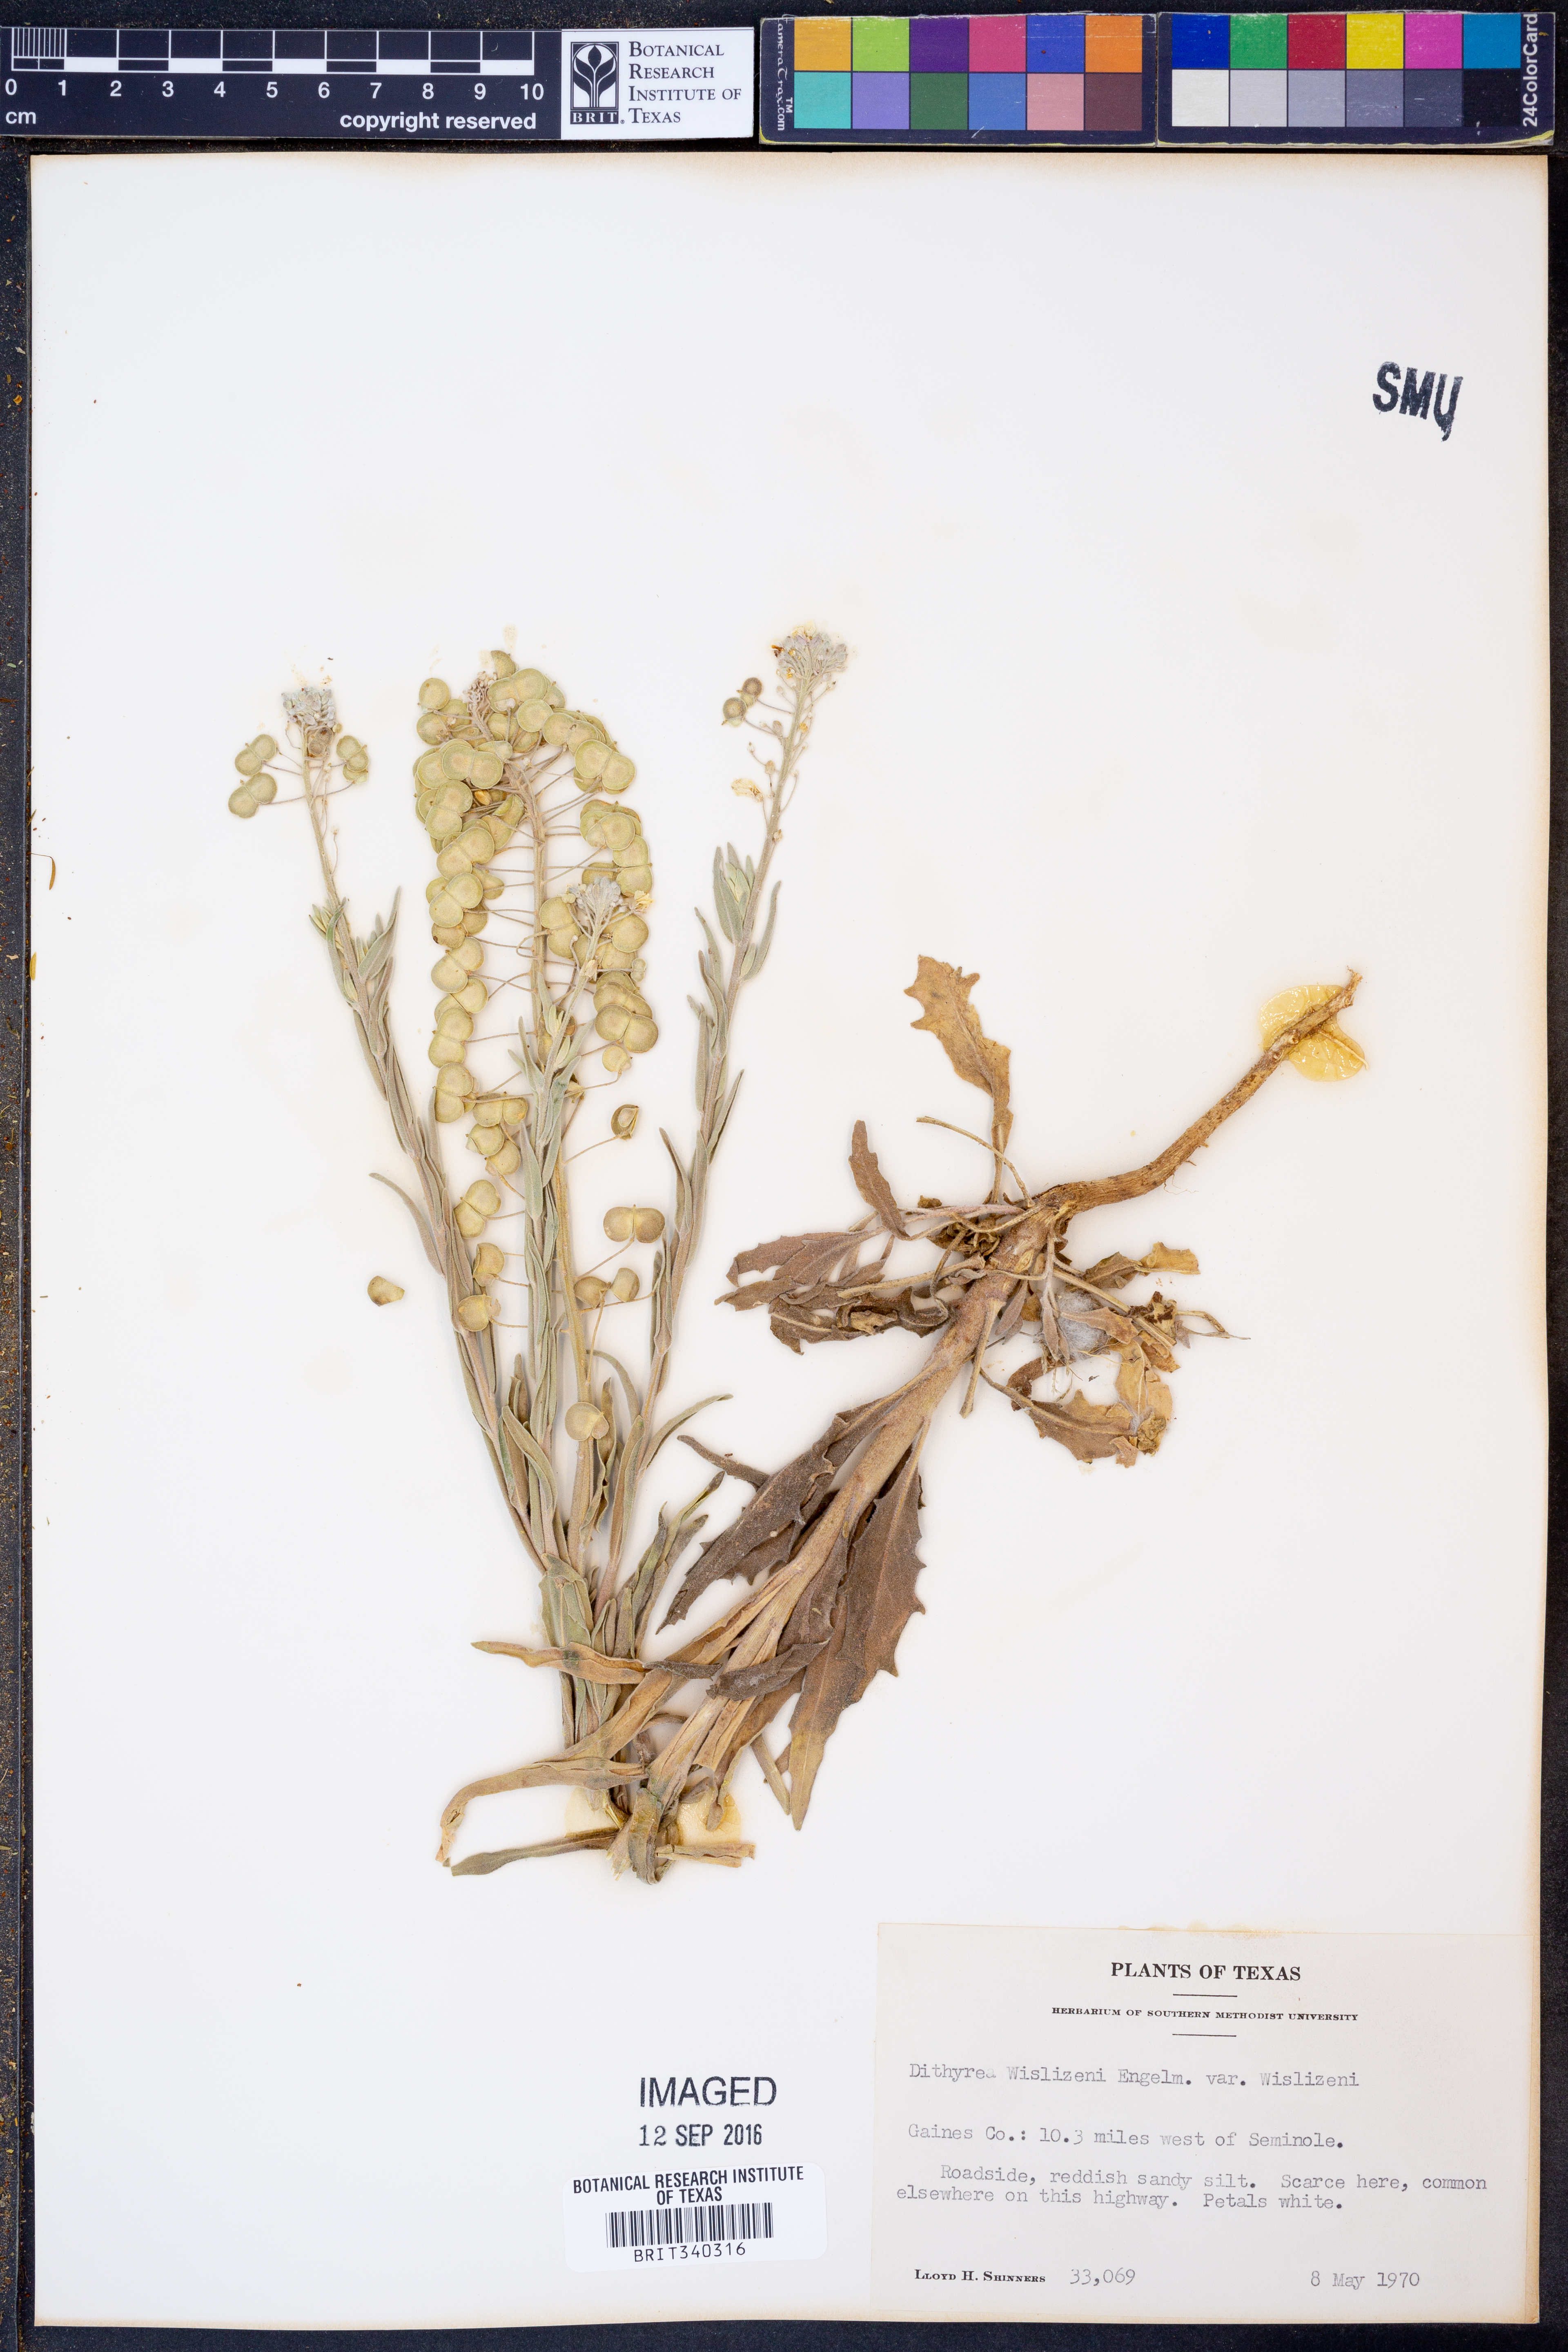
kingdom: Plantae
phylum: Tracheophyta
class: Magnoliopsida
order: Brassicales
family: Brassicaceae
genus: Dimorphocarpa
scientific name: Dimorphocarpa wislizenii
